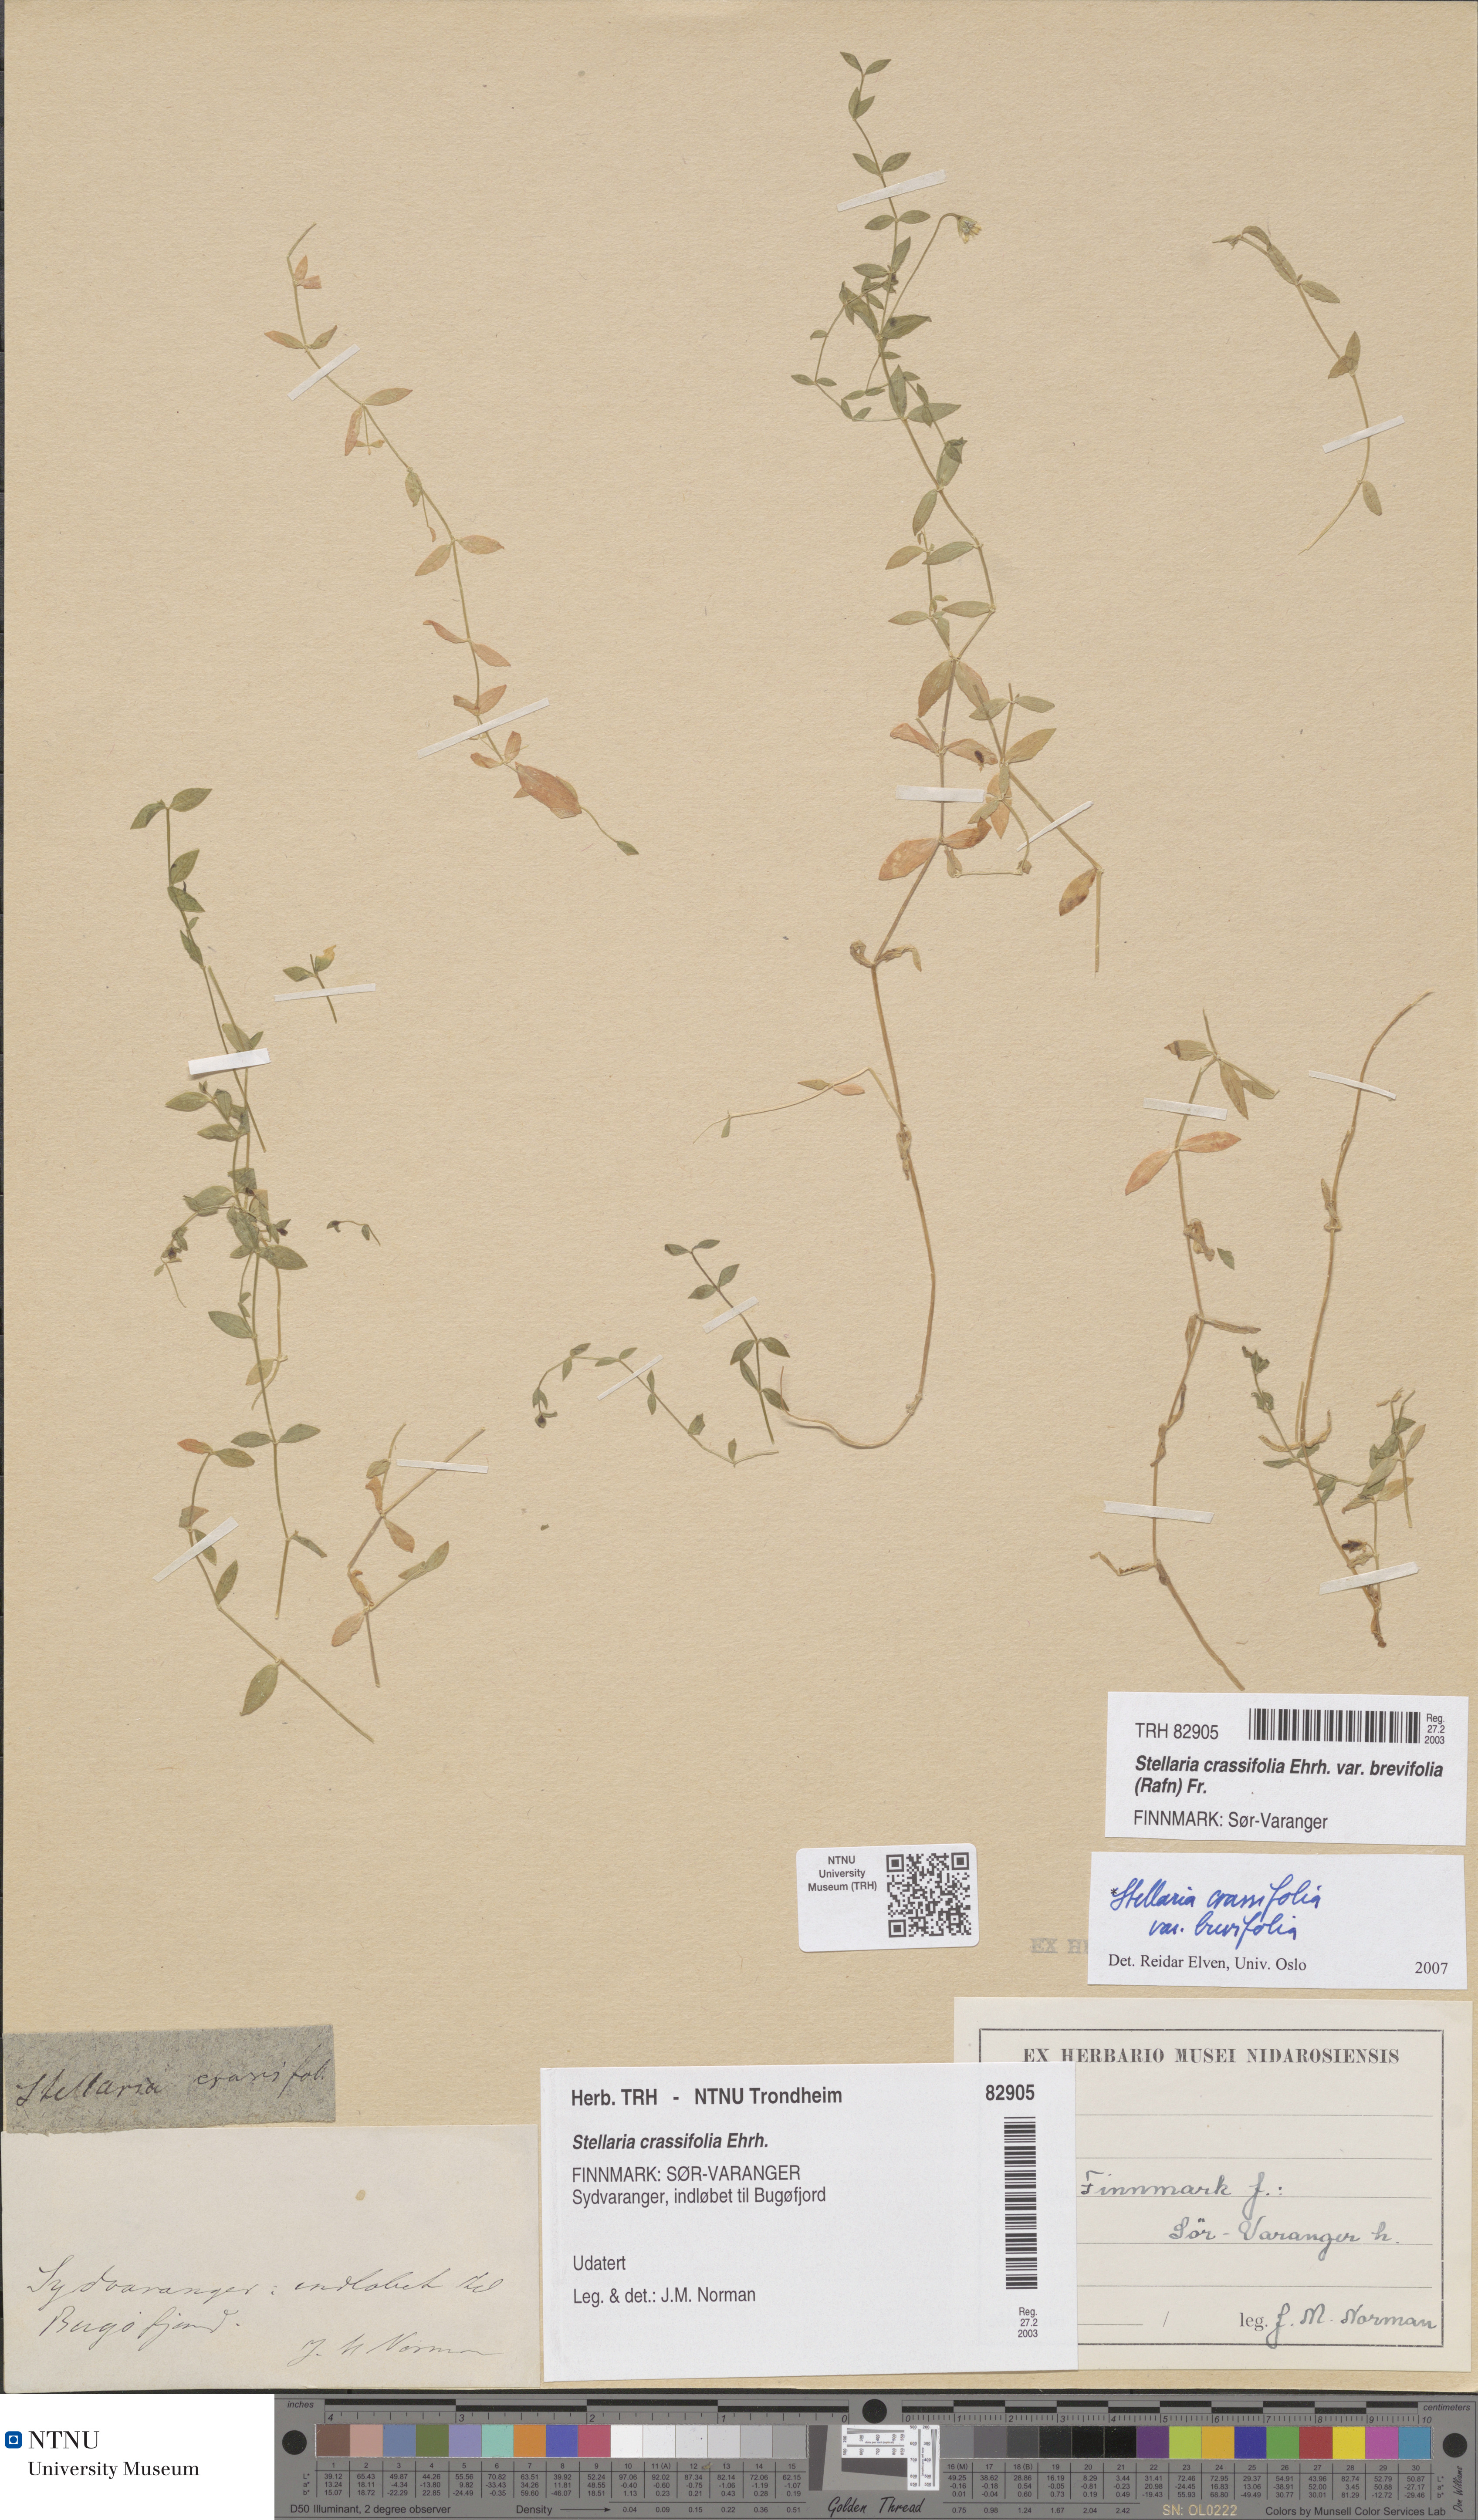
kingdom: Plantae
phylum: Tracheophyta
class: Magnoliopsida
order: Caryophyllales
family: Caryophyllaceae
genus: Stellaria
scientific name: Stellaria crassifolia
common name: Fleshy starwort
